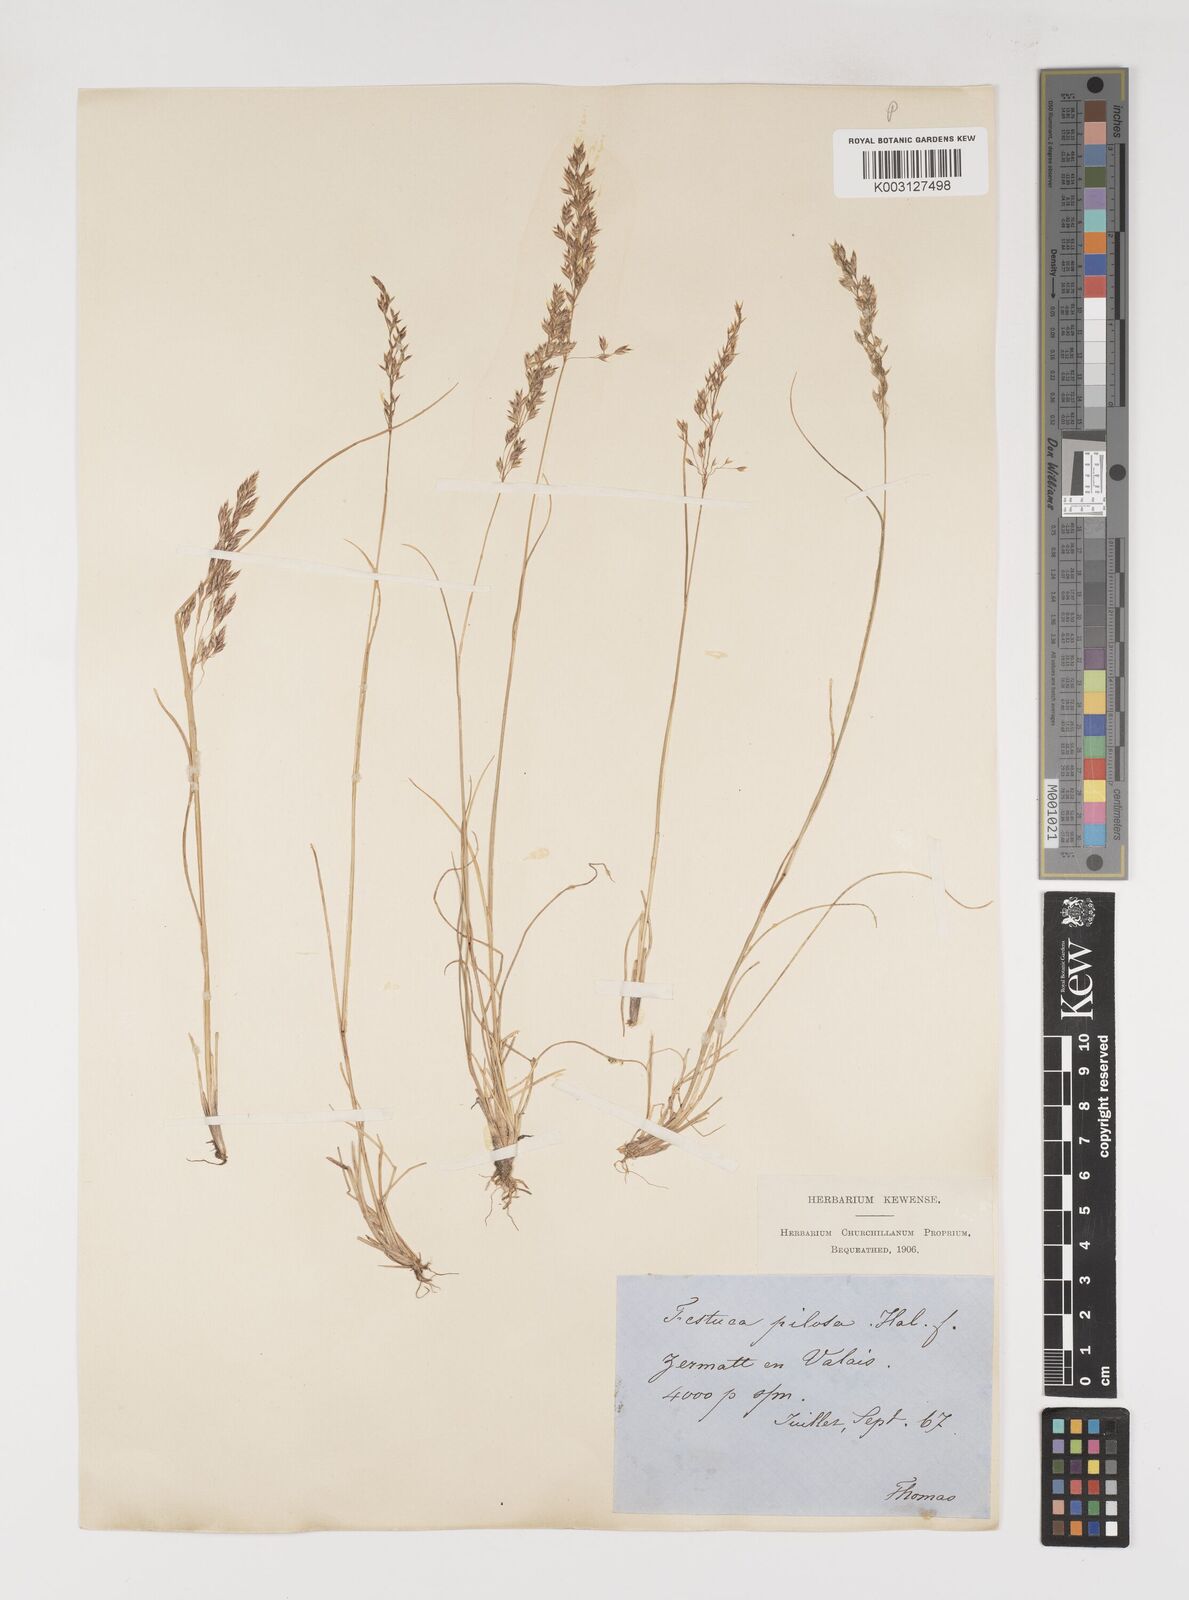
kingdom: Plantae
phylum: Tracheophyta
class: Liliopsida
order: Poales
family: Poaceae
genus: Bellardiochloa
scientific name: Bellardiochloa variegata
